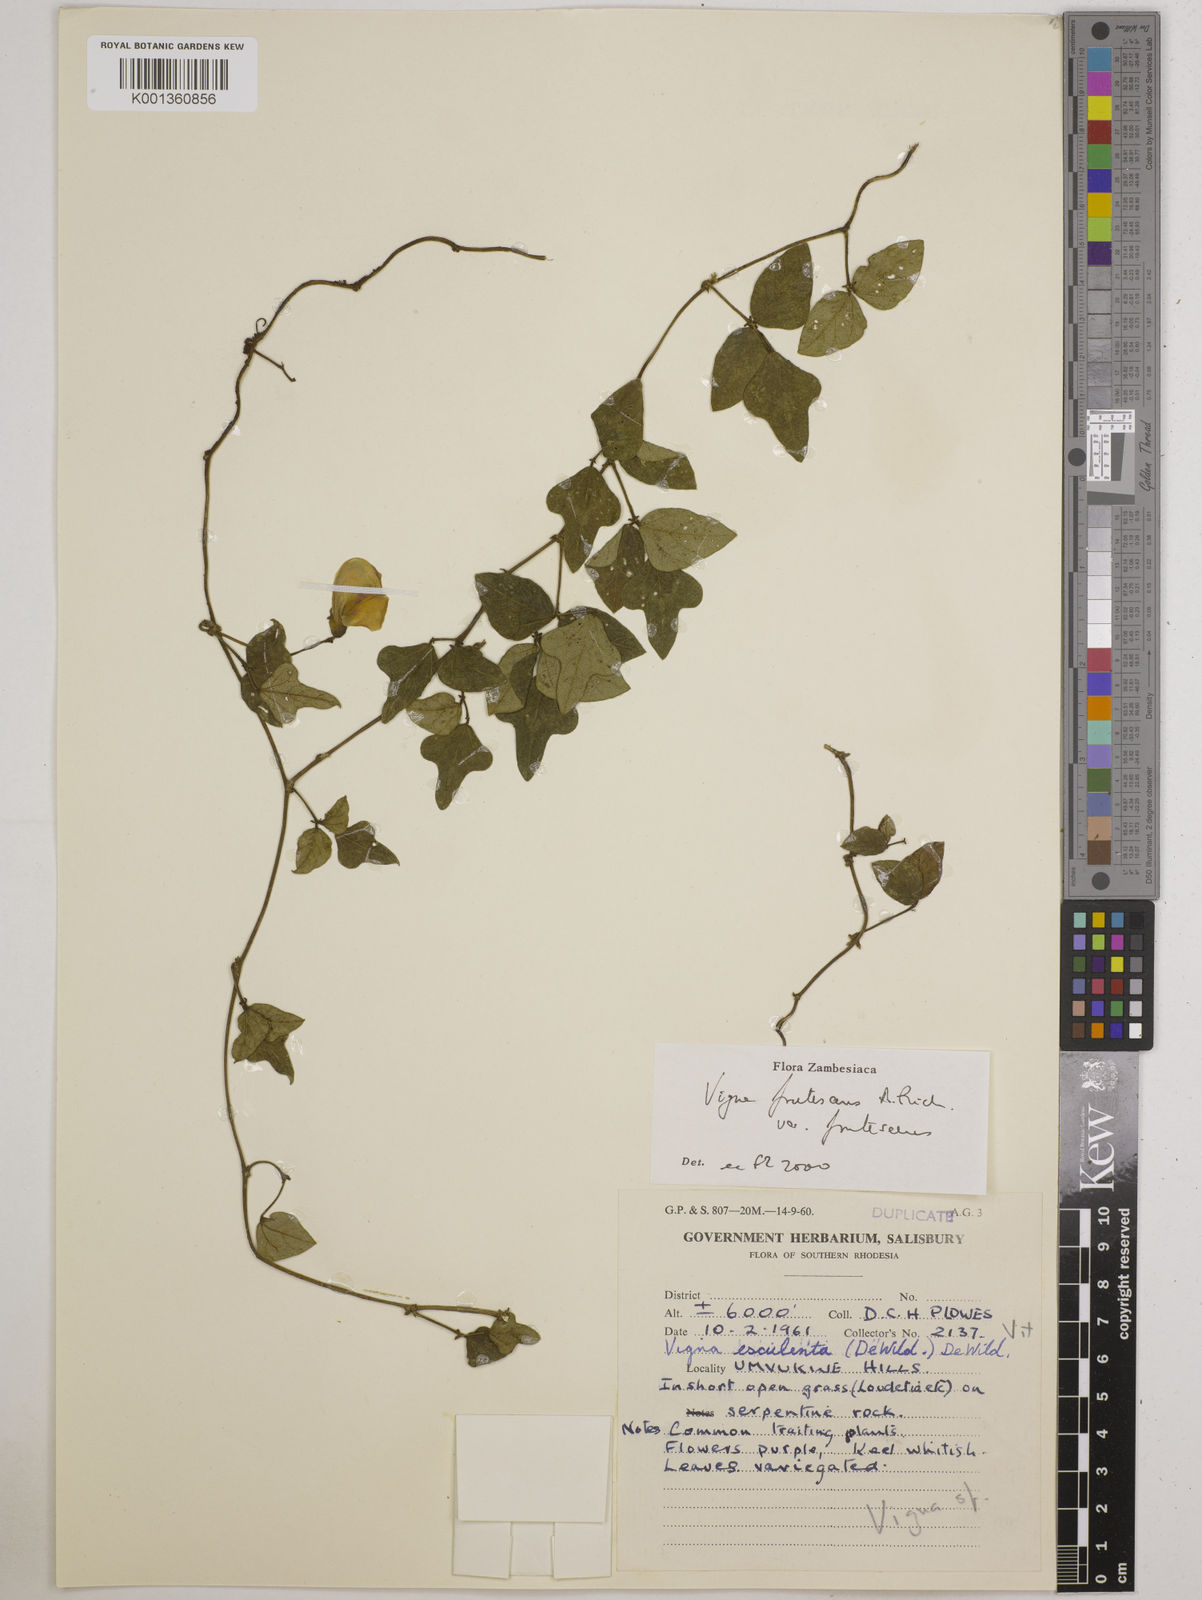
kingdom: Plantae
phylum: Tracheophyta
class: Magnoliopsida
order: Fabales
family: Fabaceae
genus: Vigna
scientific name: Vigna
